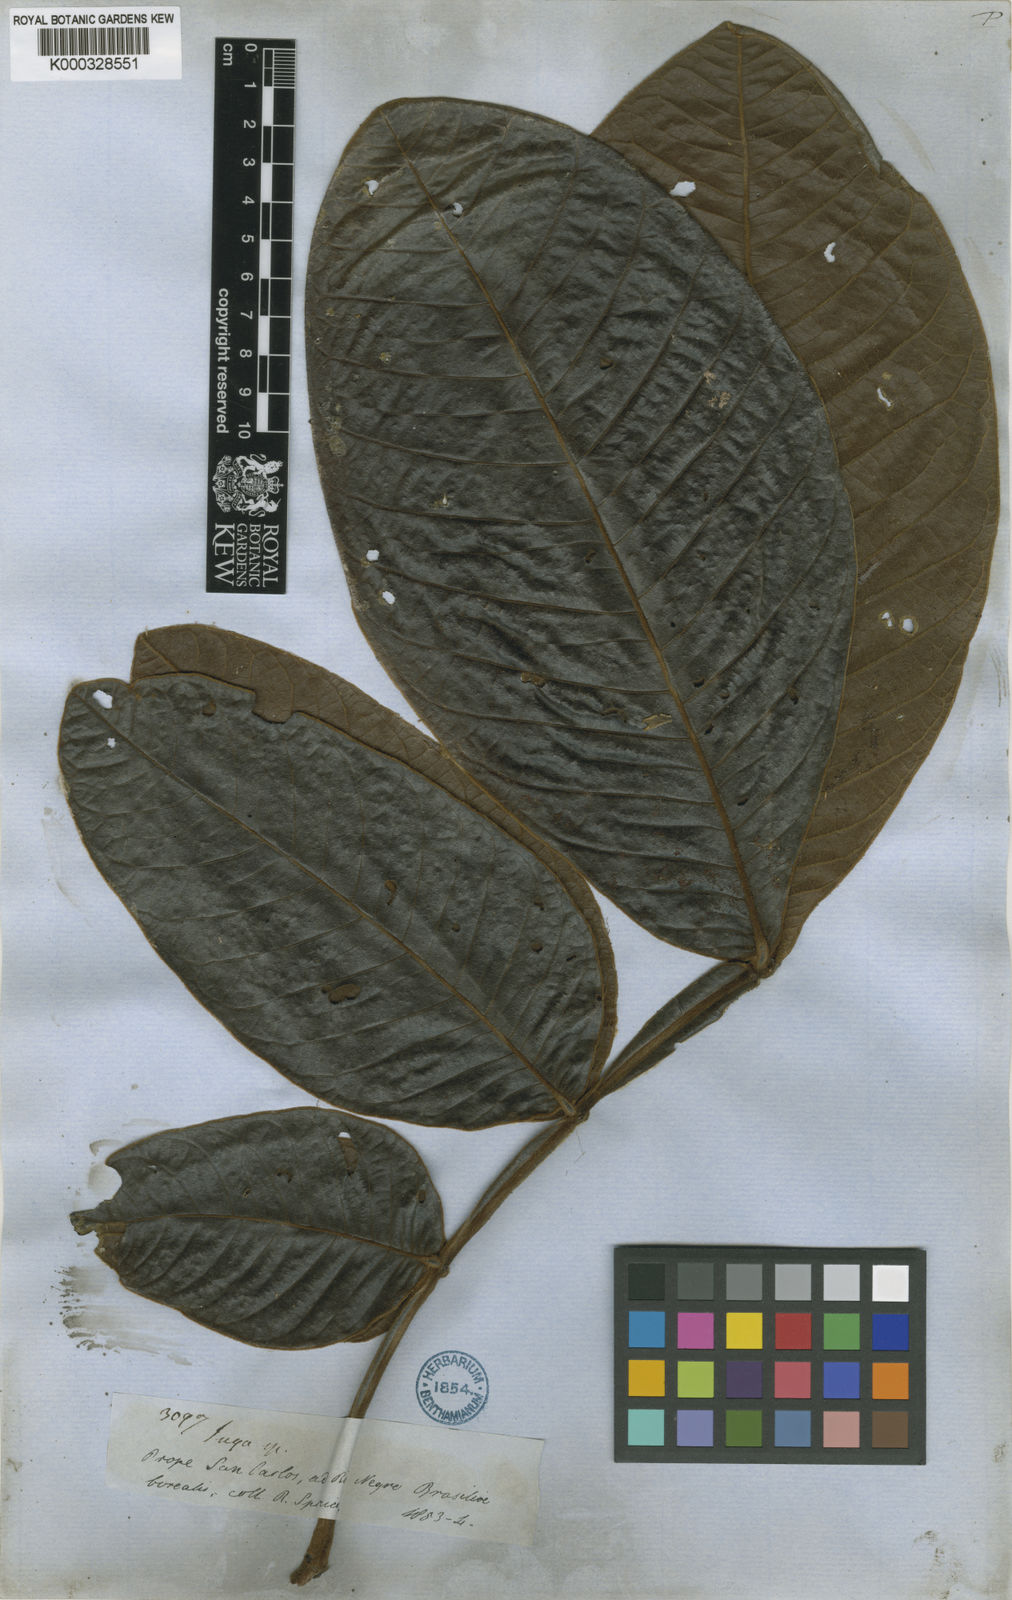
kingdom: Plantae
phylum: Tracheophyta
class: Magnoliopsida
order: Fabales
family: Fabaceae
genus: Inga
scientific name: Inga lomatophylla
